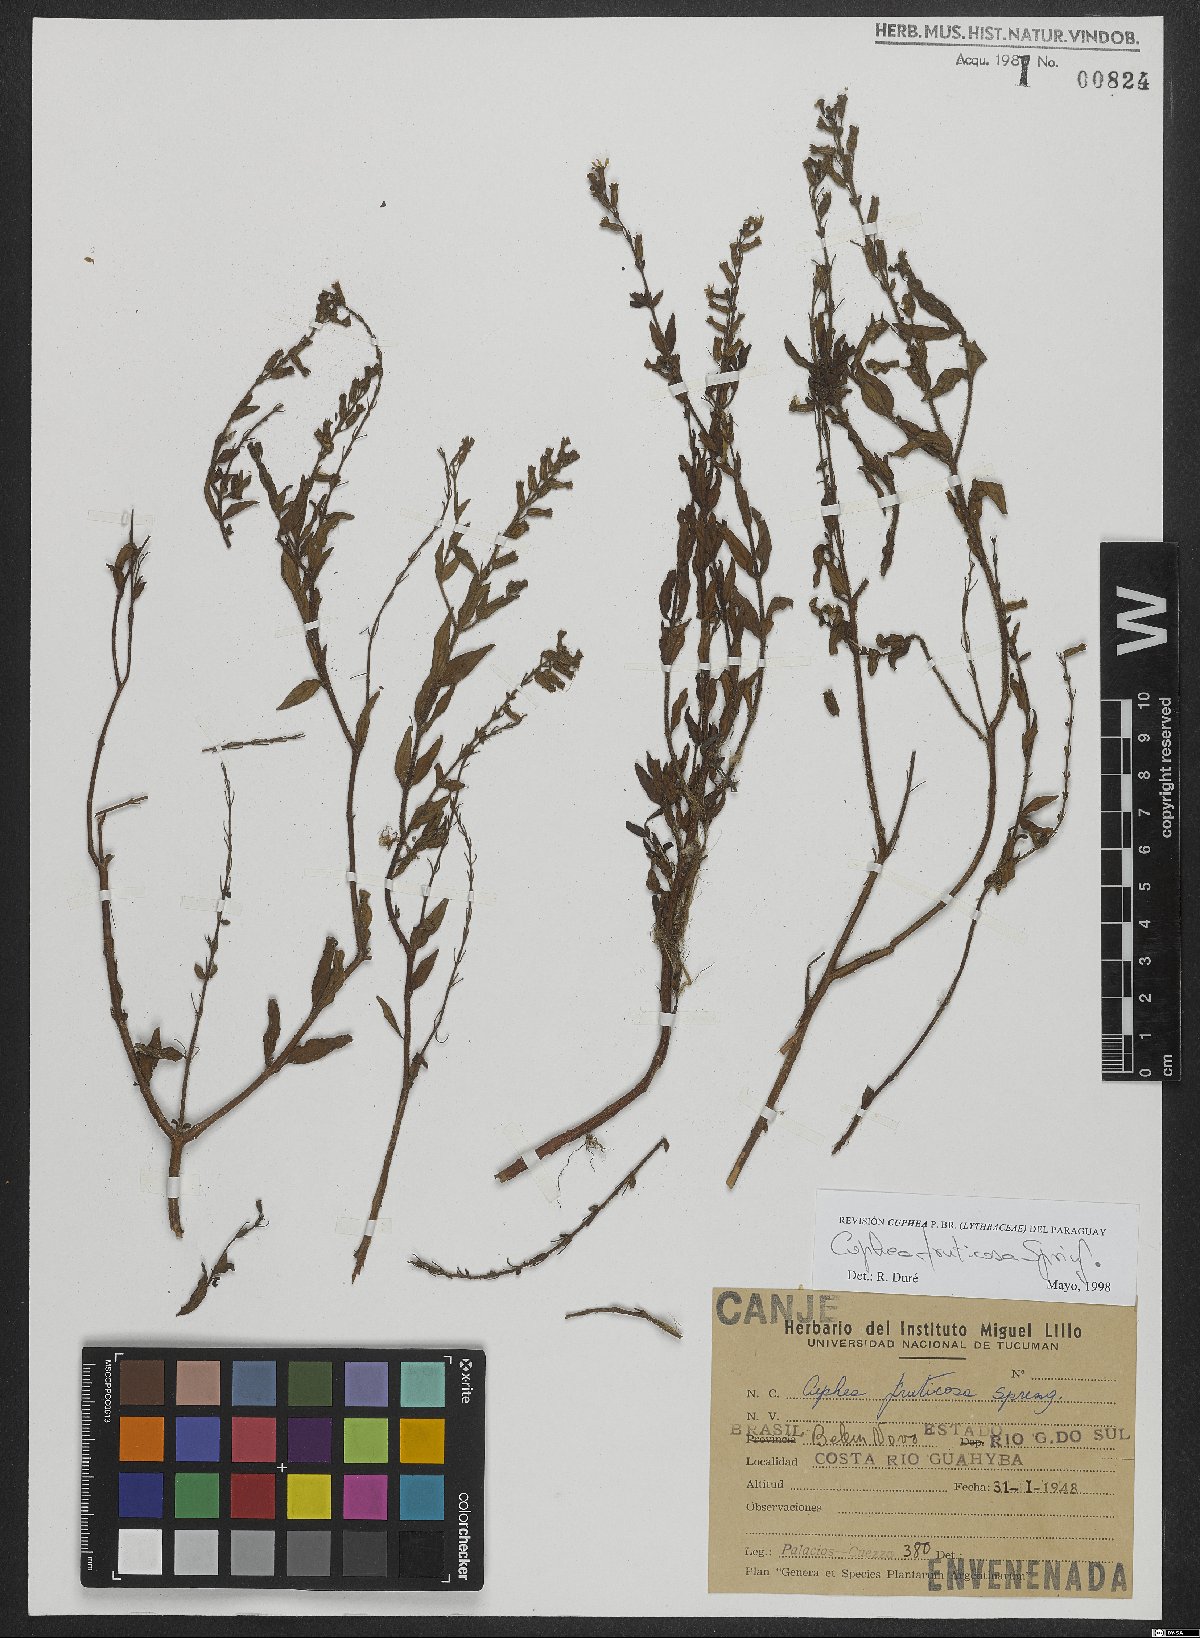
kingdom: Plantae
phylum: Tracheophyta
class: Magnoliopsida
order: Myrtales
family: Lythraceae
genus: Cuphea
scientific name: Cuphea fruticosa
